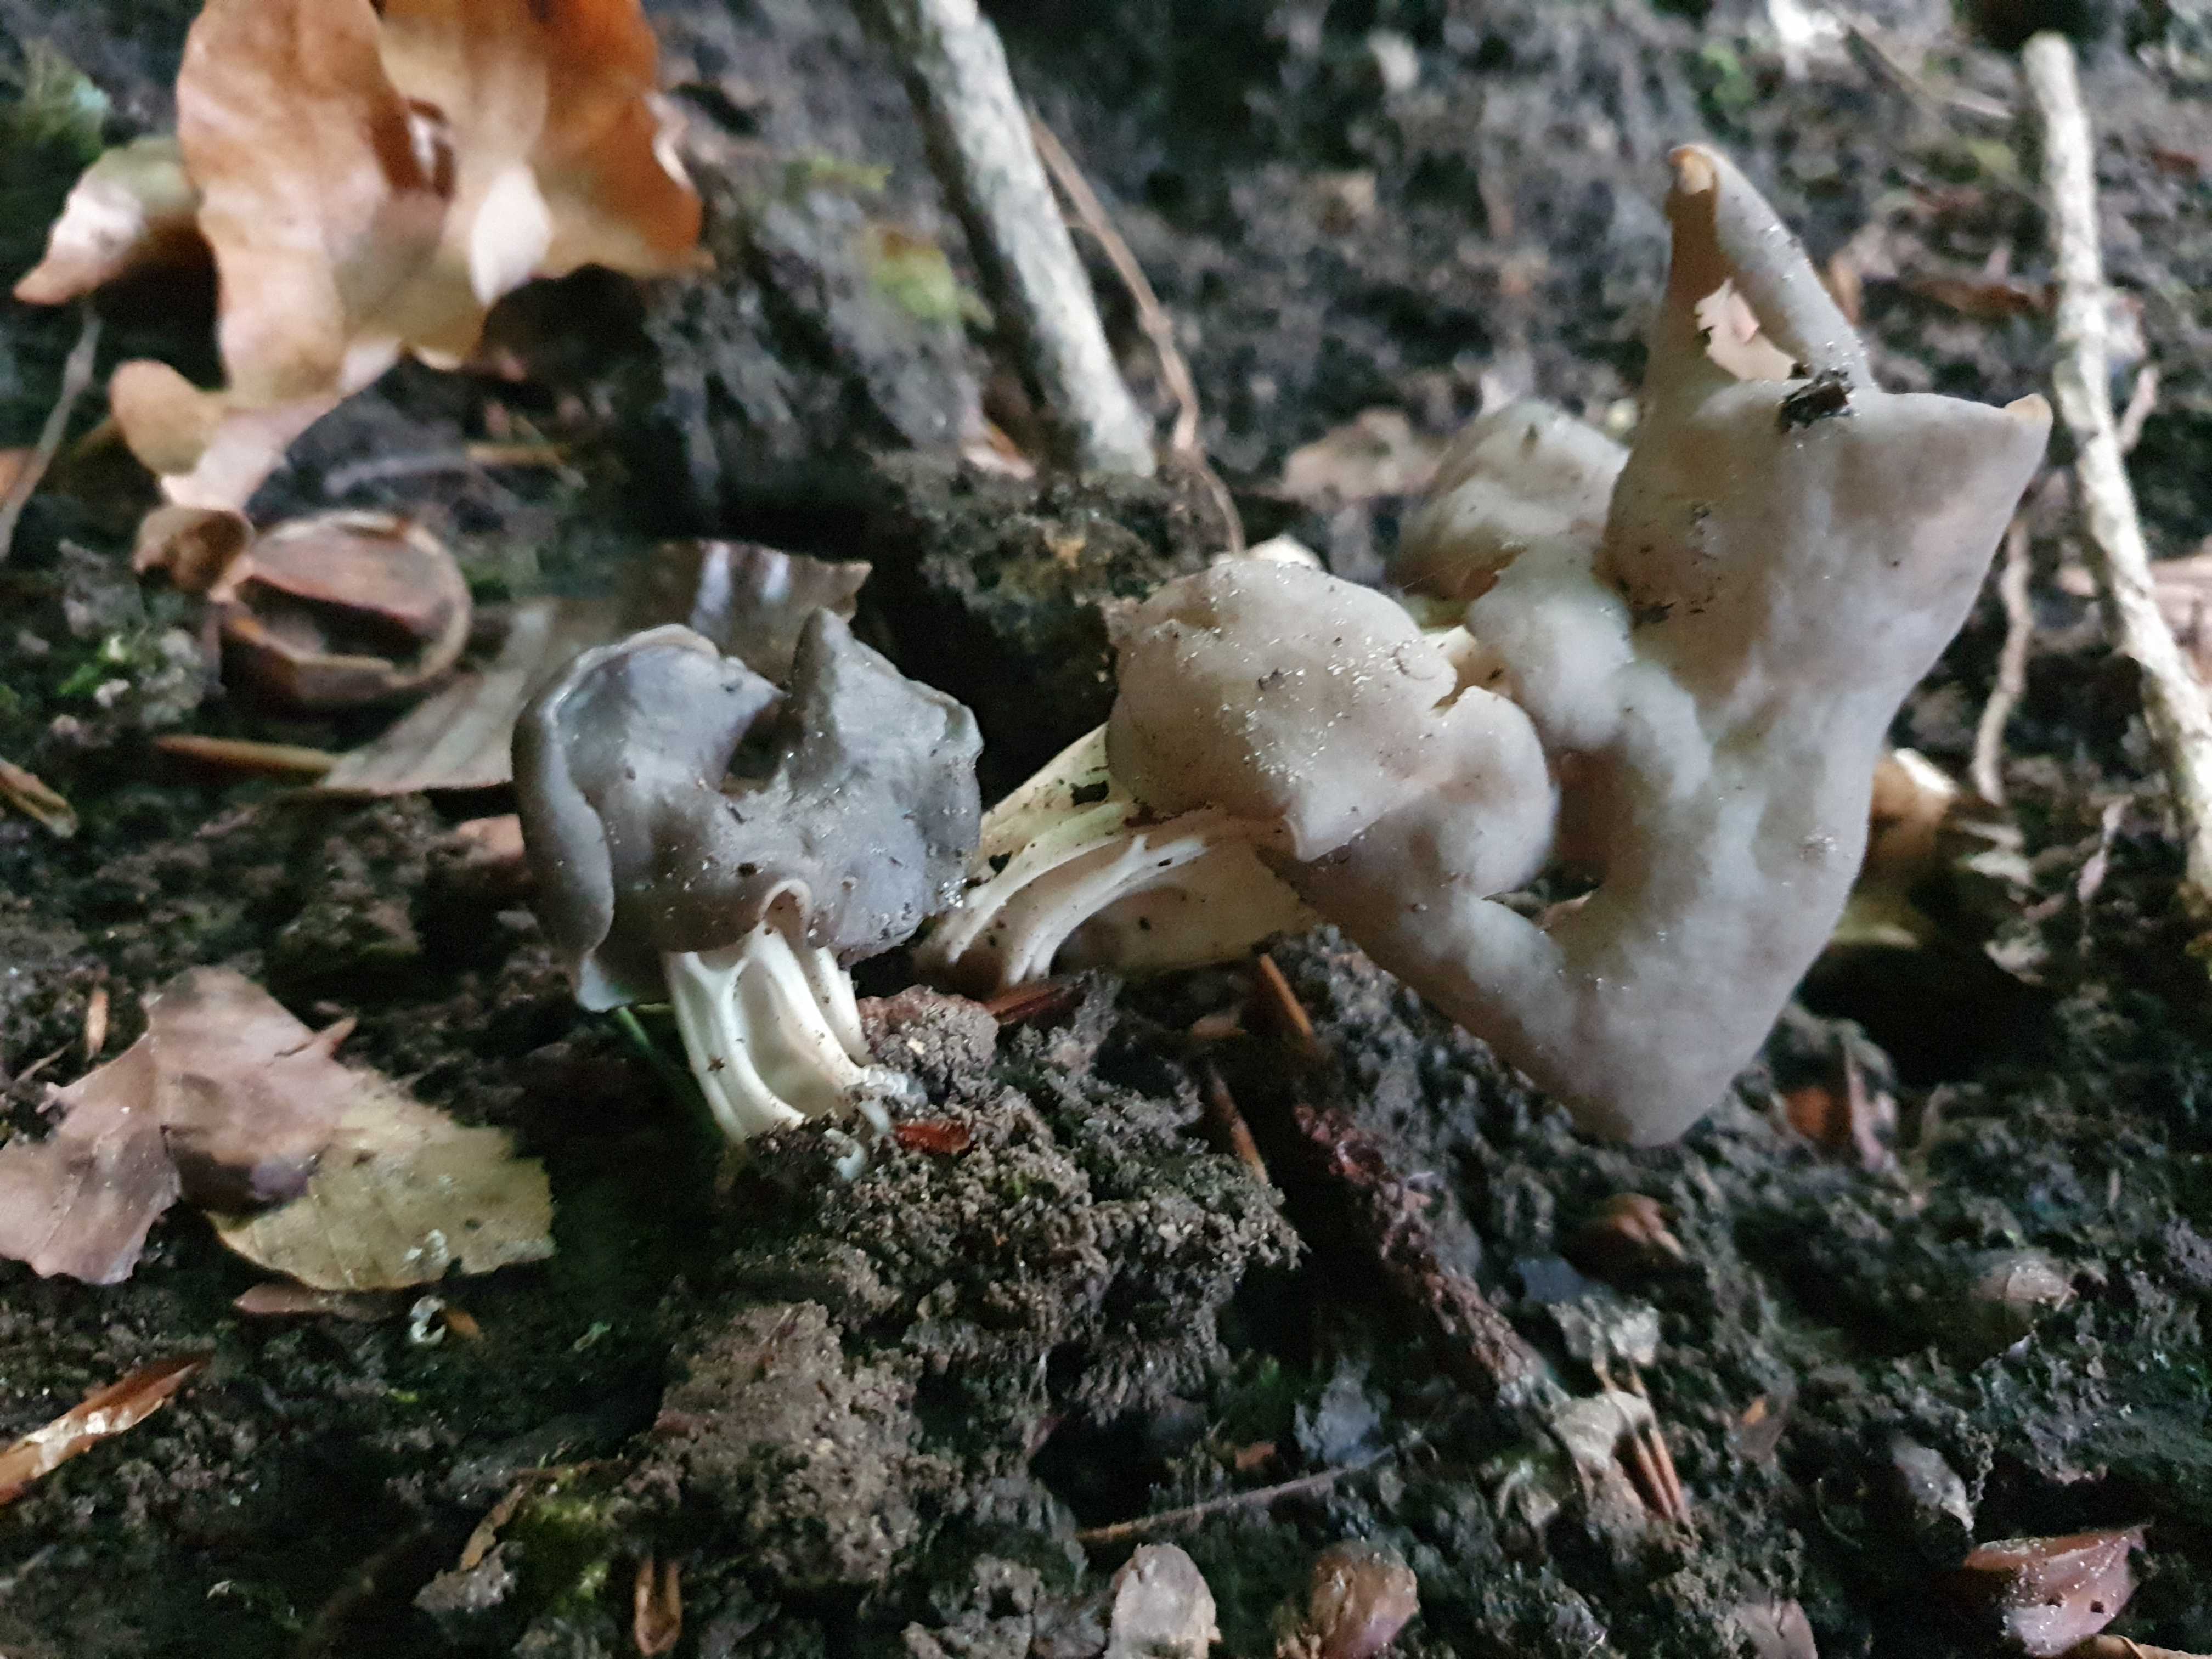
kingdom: Fungi
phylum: Ascomycota
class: Pezizomycetes
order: Pezizales
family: Helvellaceae
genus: Helvella
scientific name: Helvella lacunosa
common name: grubet foldhat
